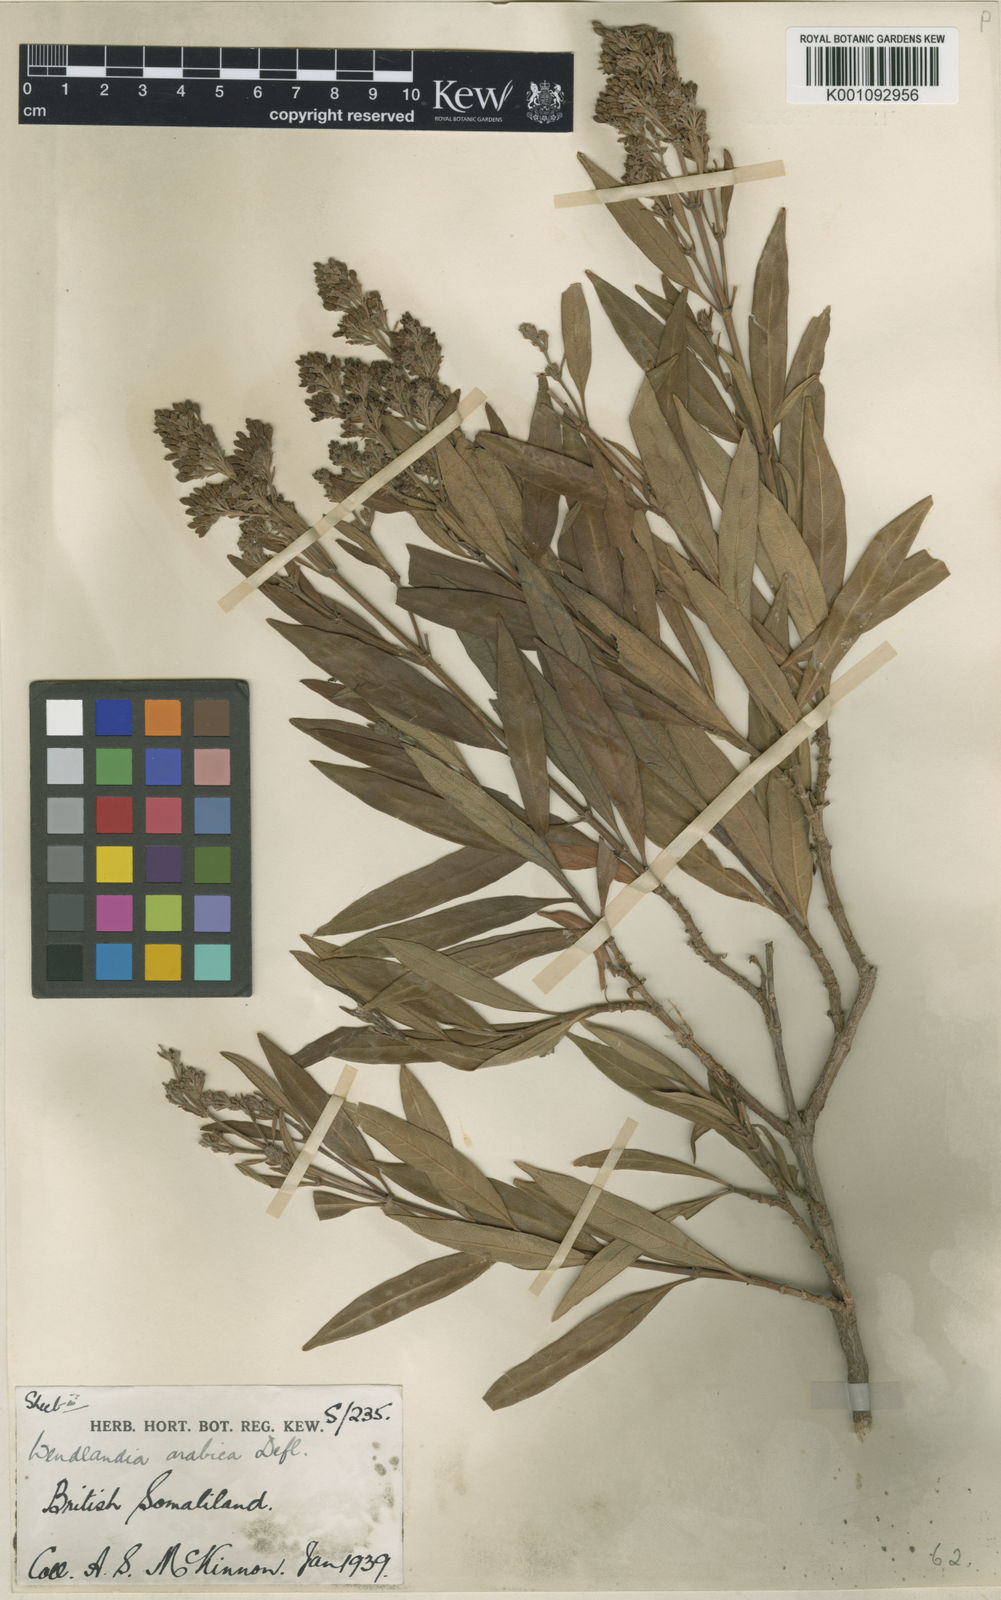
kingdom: Plantae
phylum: Tracheophyta
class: Magnoliopsida
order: Gentianales
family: Rubiaceae
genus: Wendlandia
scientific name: Wendlandia arabica
